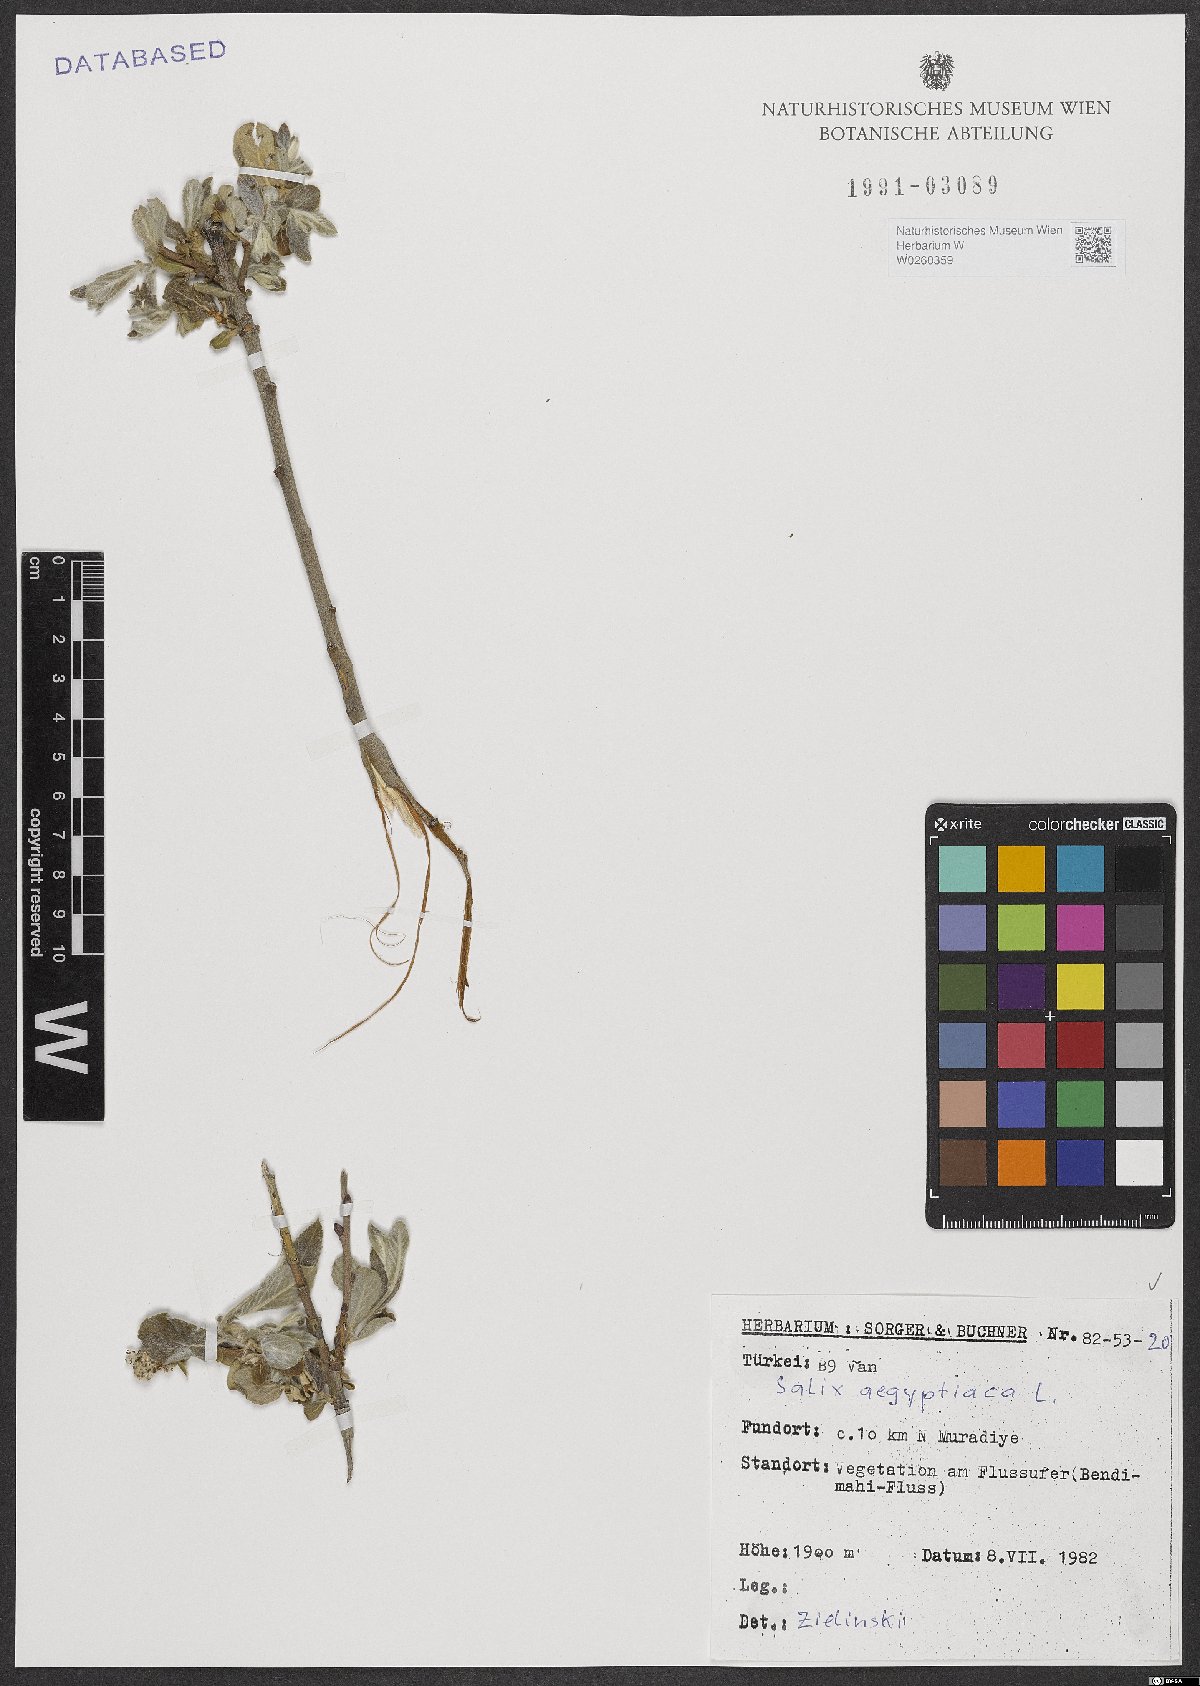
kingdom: Plantae
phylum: Tracheophyta
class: Magnoliopsida
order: Malpighiales
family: Salicaceae
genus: Salix
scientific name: Salix aegyptiaca
